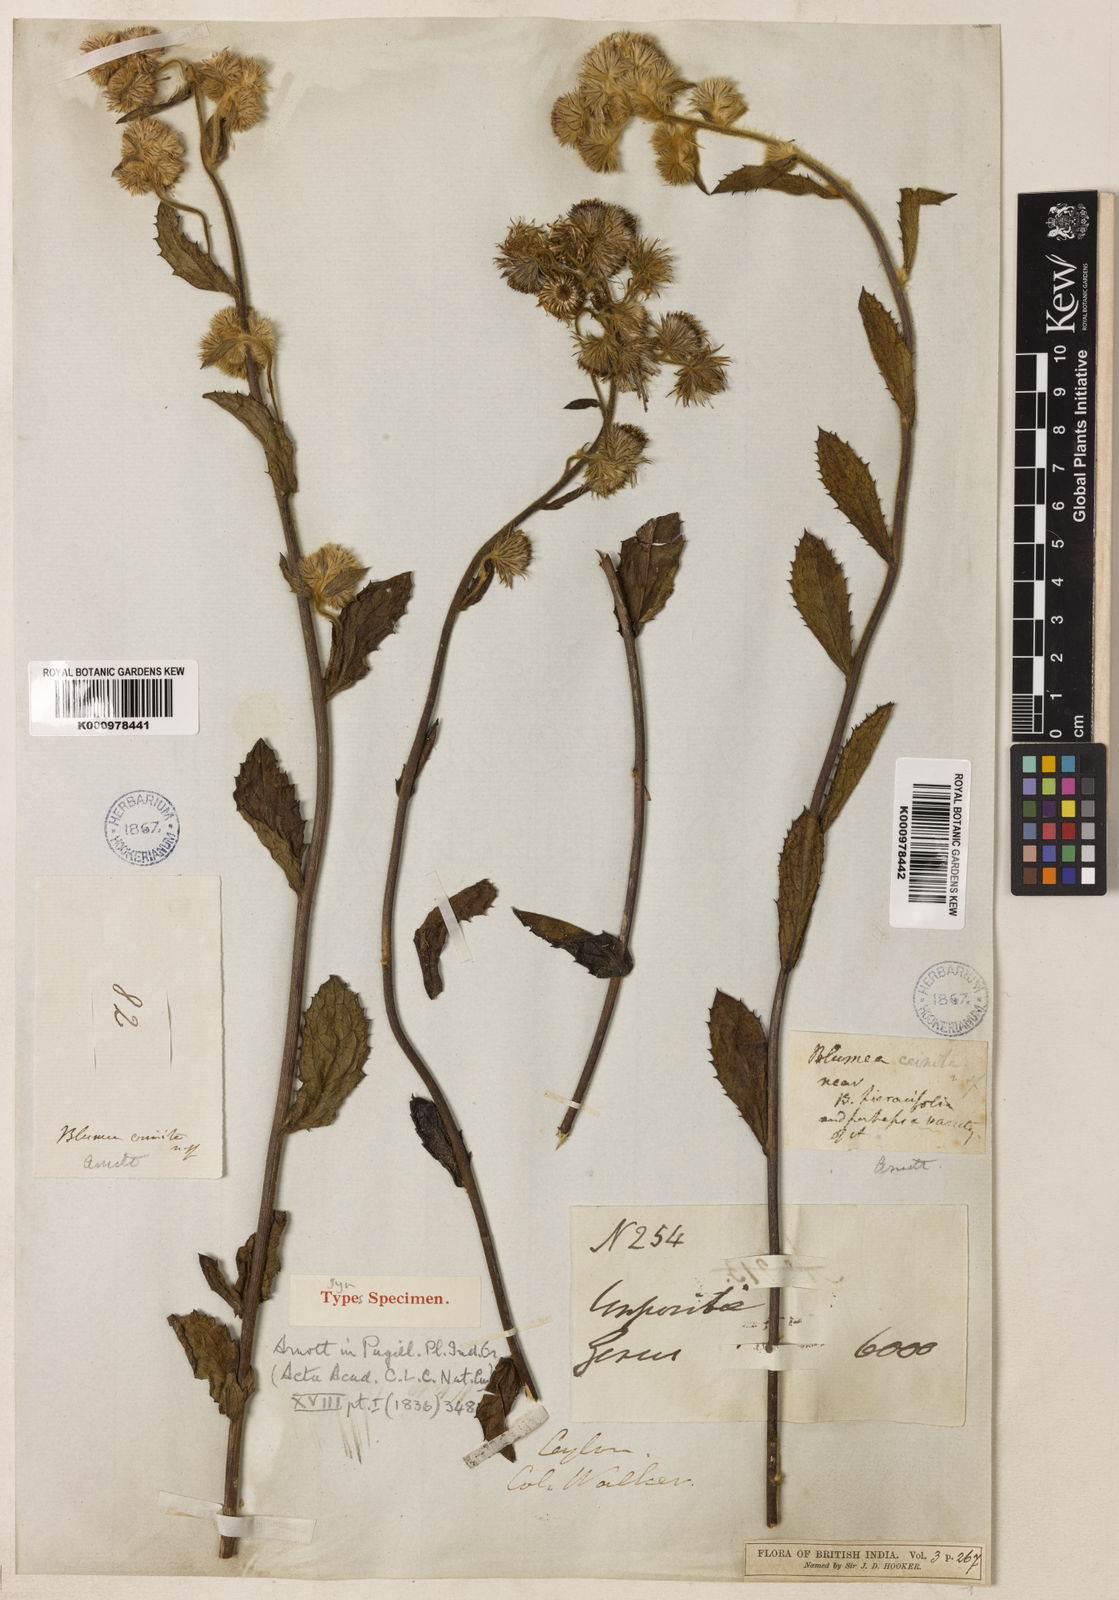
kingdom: Plantae
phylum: Tracheophyta
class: Magnoliopsida
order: Asterales
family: Asteraceae
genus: Blumea
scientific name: Blumea crinita
